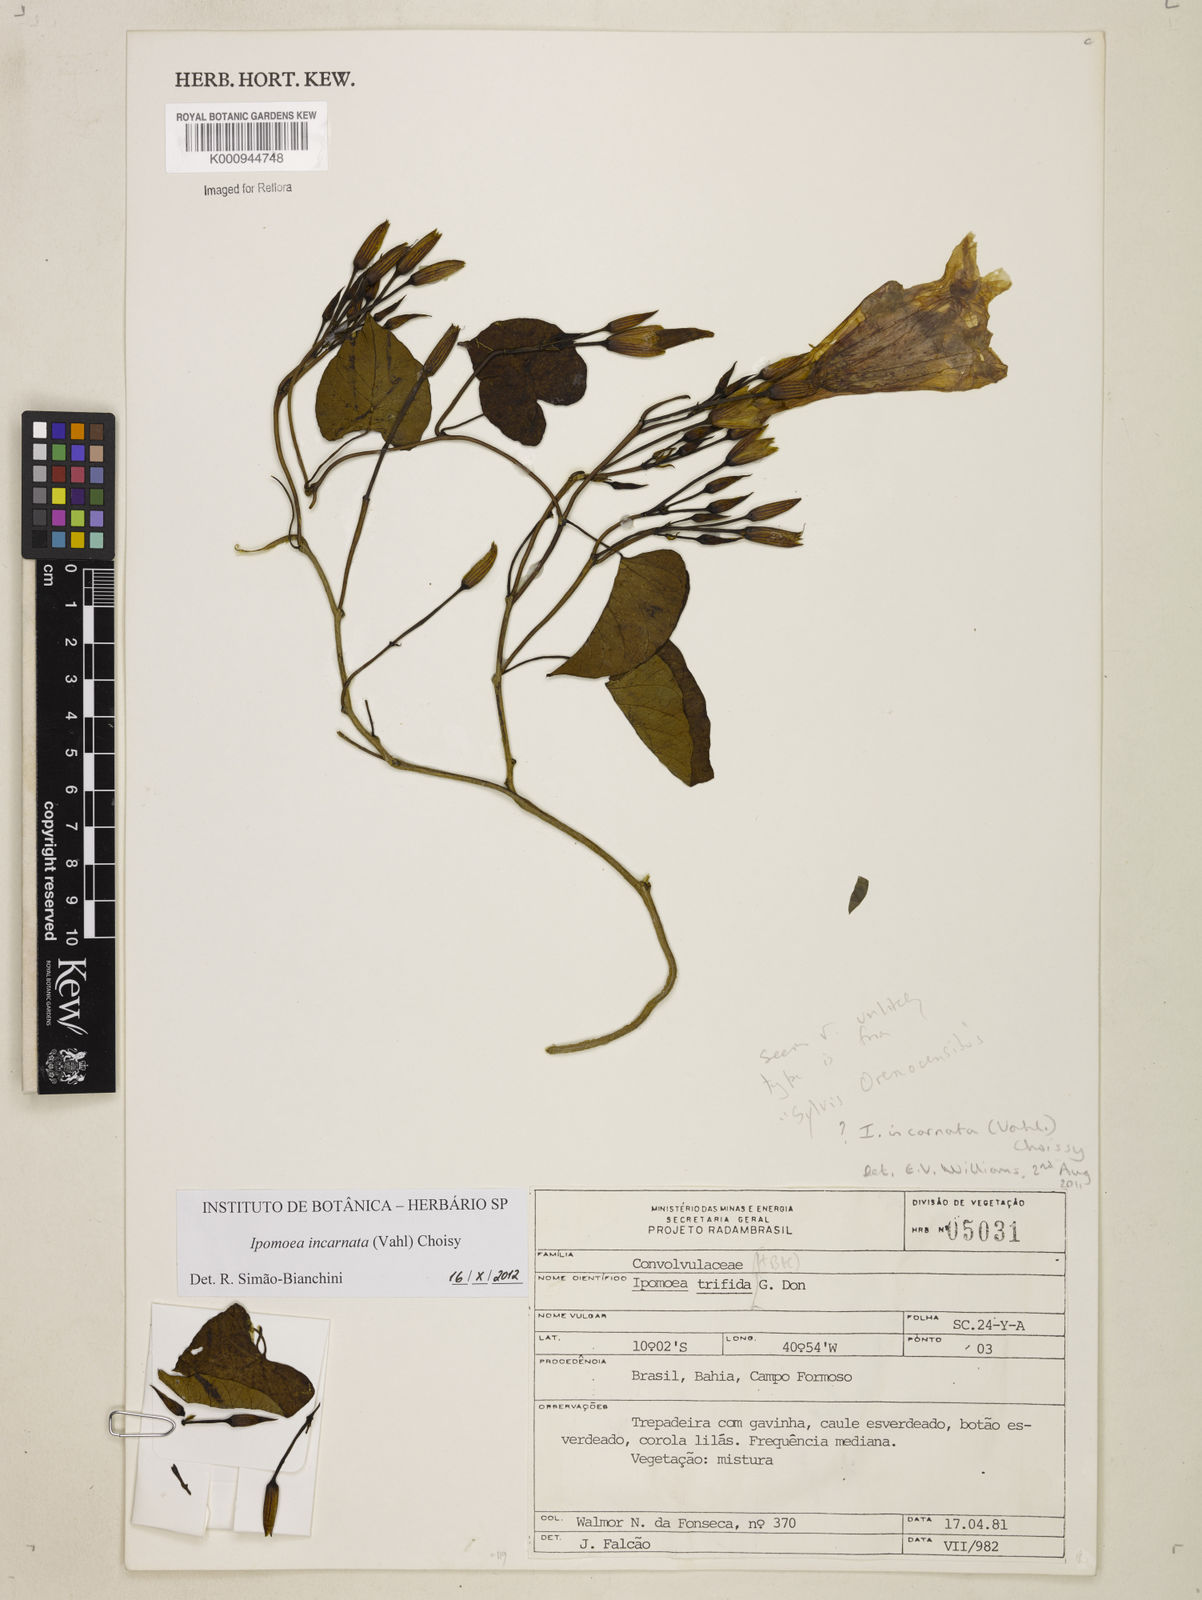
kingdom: Plantae
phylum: Tracheophyta
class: Magnoliopsida
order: Solanales
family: Convolvulaceae
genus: Ipomoea
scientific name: Ipomoea incarnata
